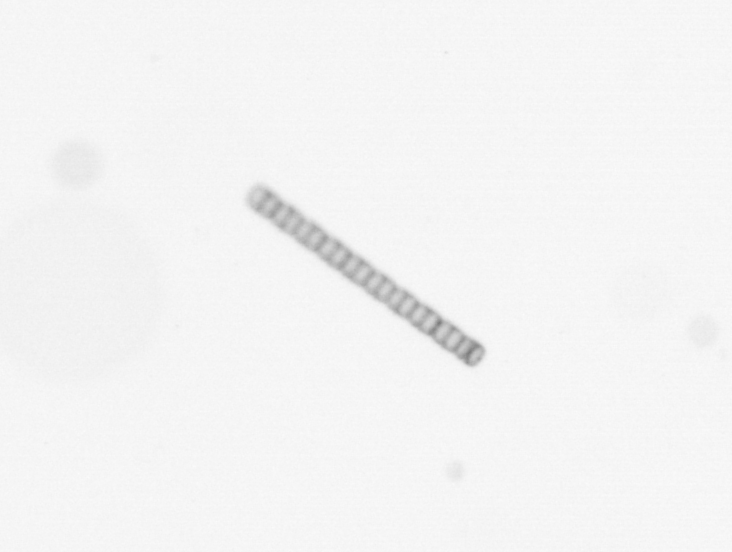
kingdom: Chromista
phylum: Ochrophyta
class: Bacillariophyceae
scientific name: Bacillariophyceae
